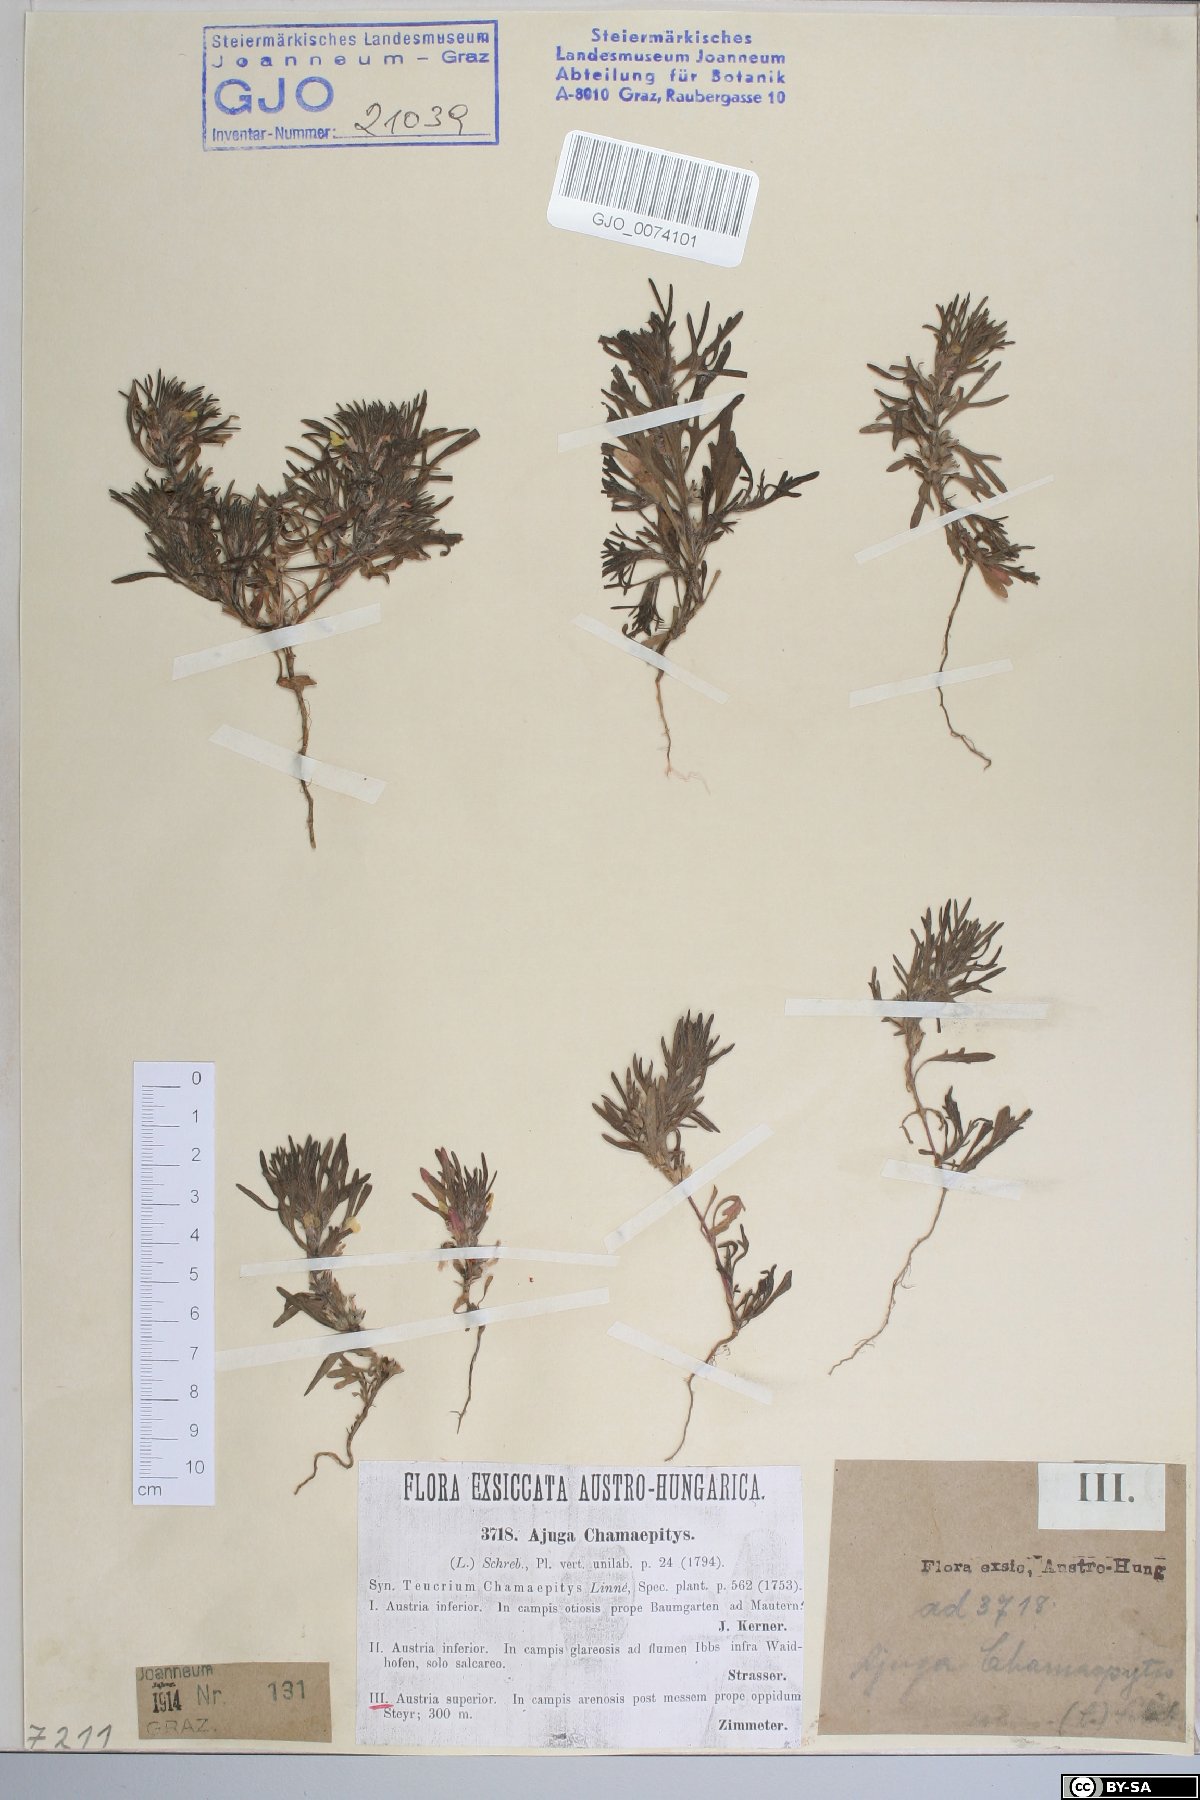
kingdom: Plantae
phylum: Tracheophyta
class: Magnoliopsida
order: Lamiales
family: Lamiaceae
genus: Ajuga
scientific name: Ajuga chamaepitys
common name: Ground-pine
